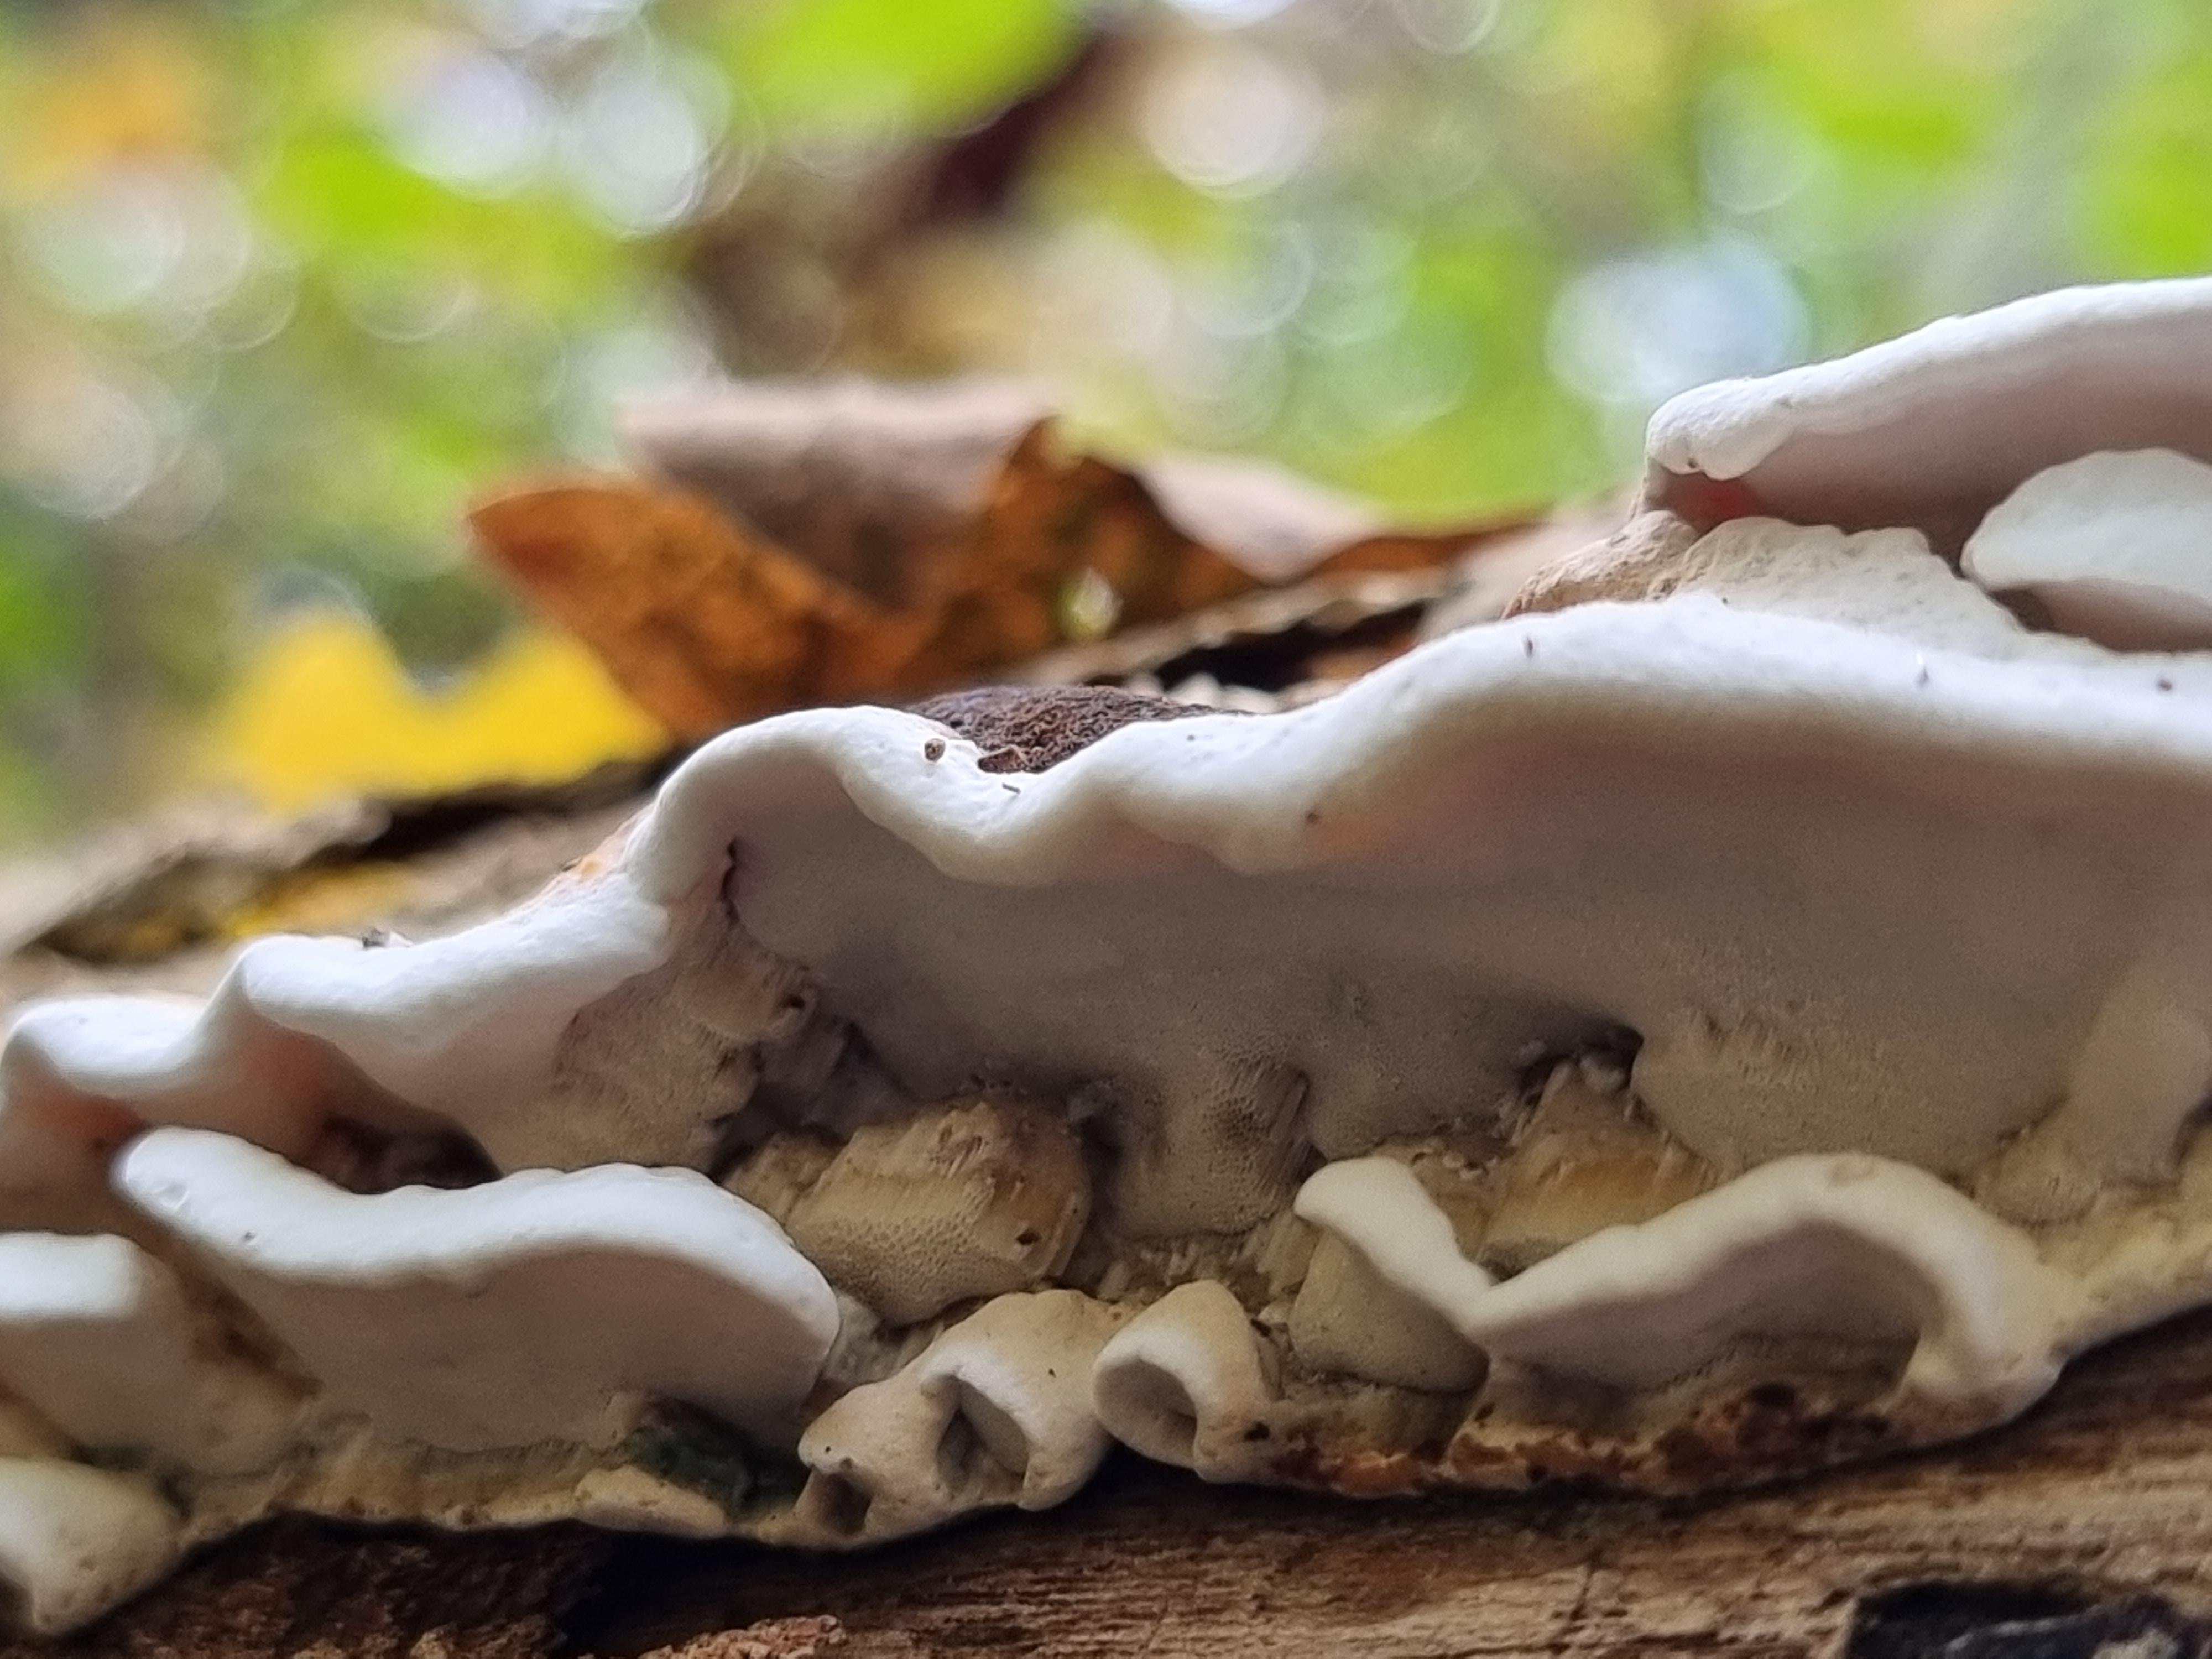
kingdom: Fungi
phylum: Basidiomycota
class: Agaricomycetes
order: Polyporales
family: Incrustoporiaceae
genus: Skeletocutis
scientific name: Skeletocutis nemoralis
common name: stor krystalporesvamp
